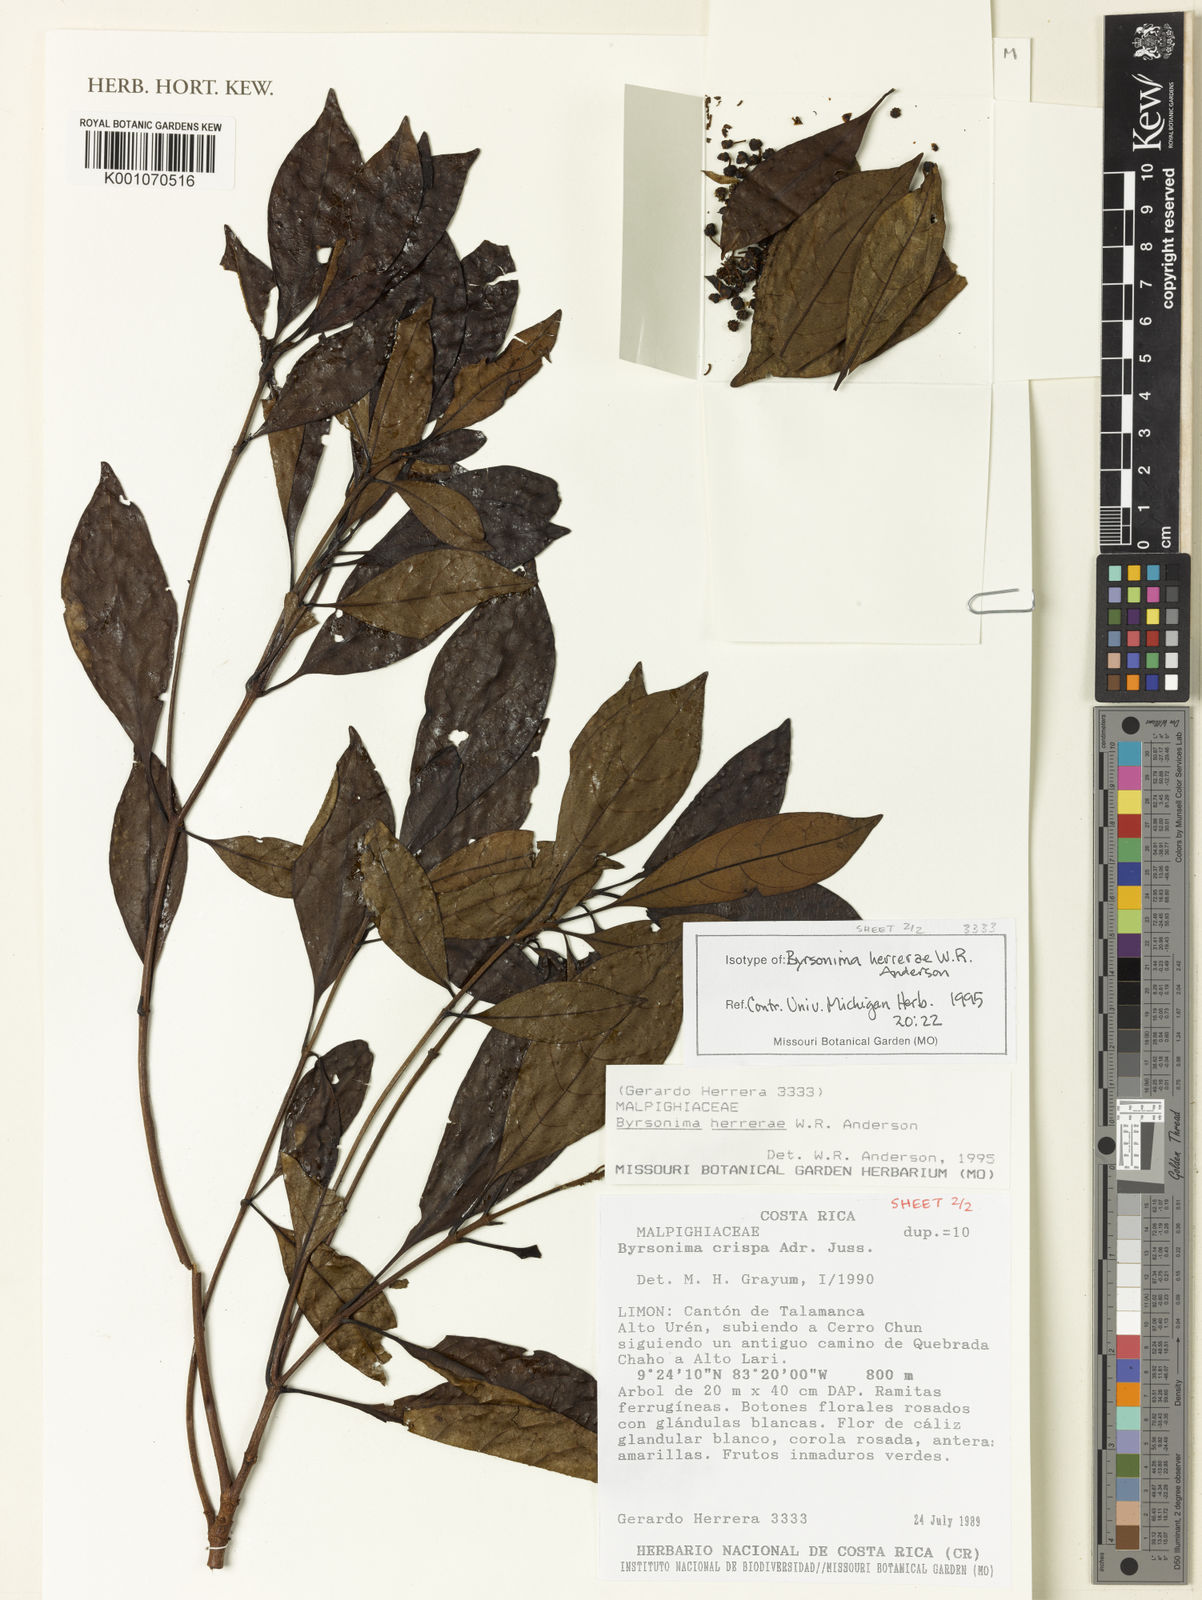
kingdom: Plantae
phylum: Tracheophyta
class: Magnoliopsida
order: Malpighiales
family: Malpighiaceae
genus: Byrsonima
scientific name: Byrsonima herrerae
